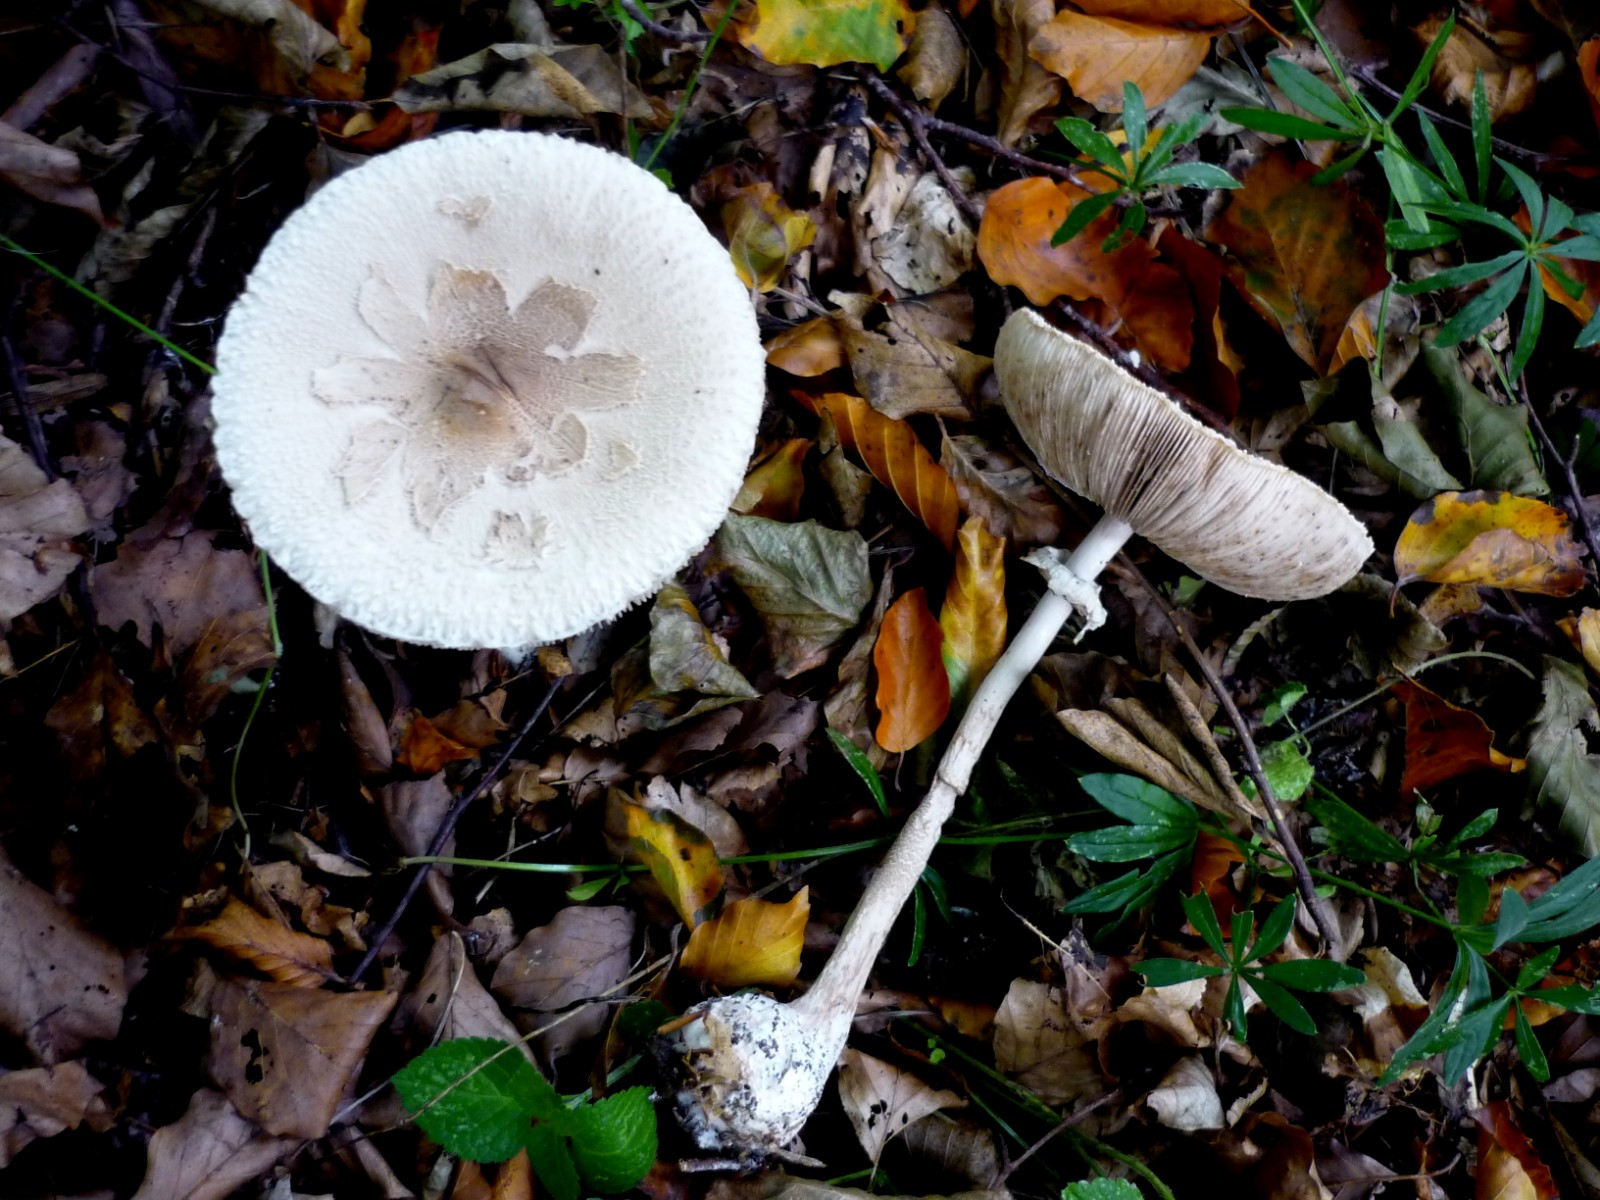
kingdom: Fungi
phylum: Basidiomycota
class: Agaricomycetes
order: Agaricales
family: Agaricaceae
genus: Macrolepiota
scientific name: Macrolepiota
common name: kæmpeparasolhat
